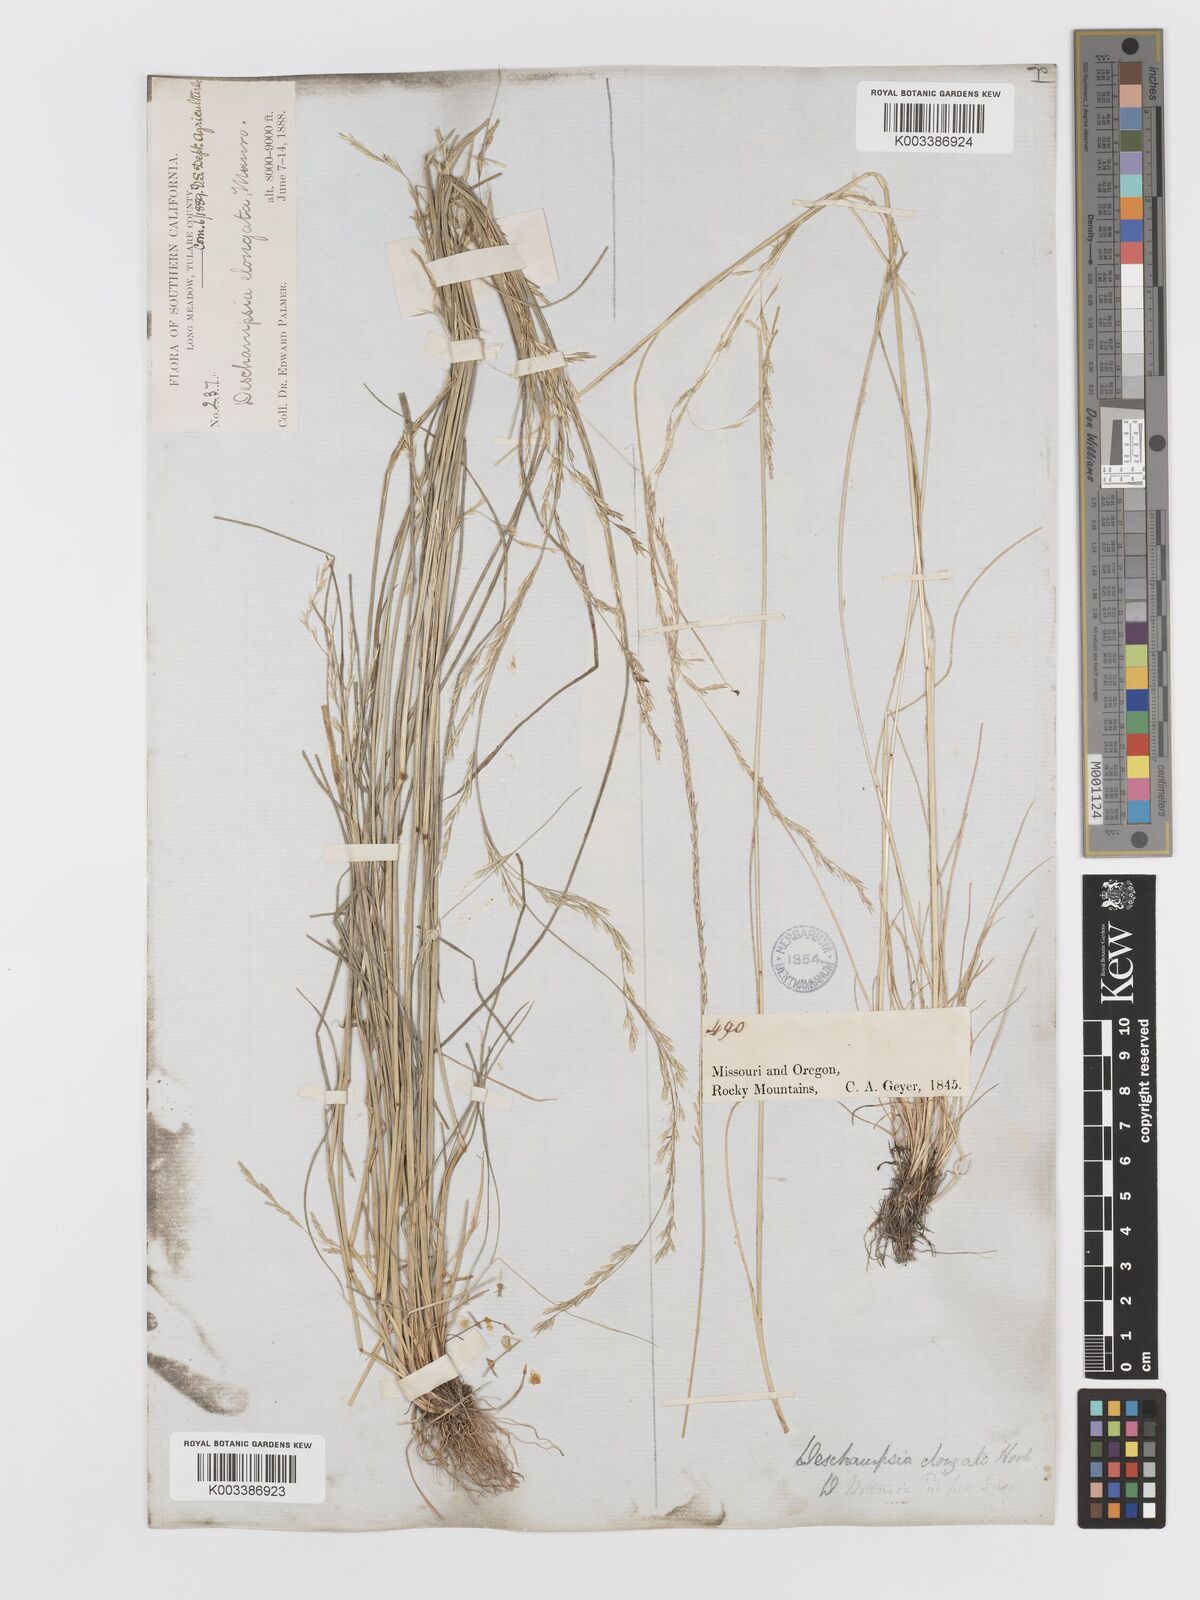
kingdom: Plantae
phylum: Tracheophyta
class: Liliopsida
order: Poales
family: Poaceae
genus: Deschampsia
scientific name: Deschampsia elongata
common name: Slender hairgrass
